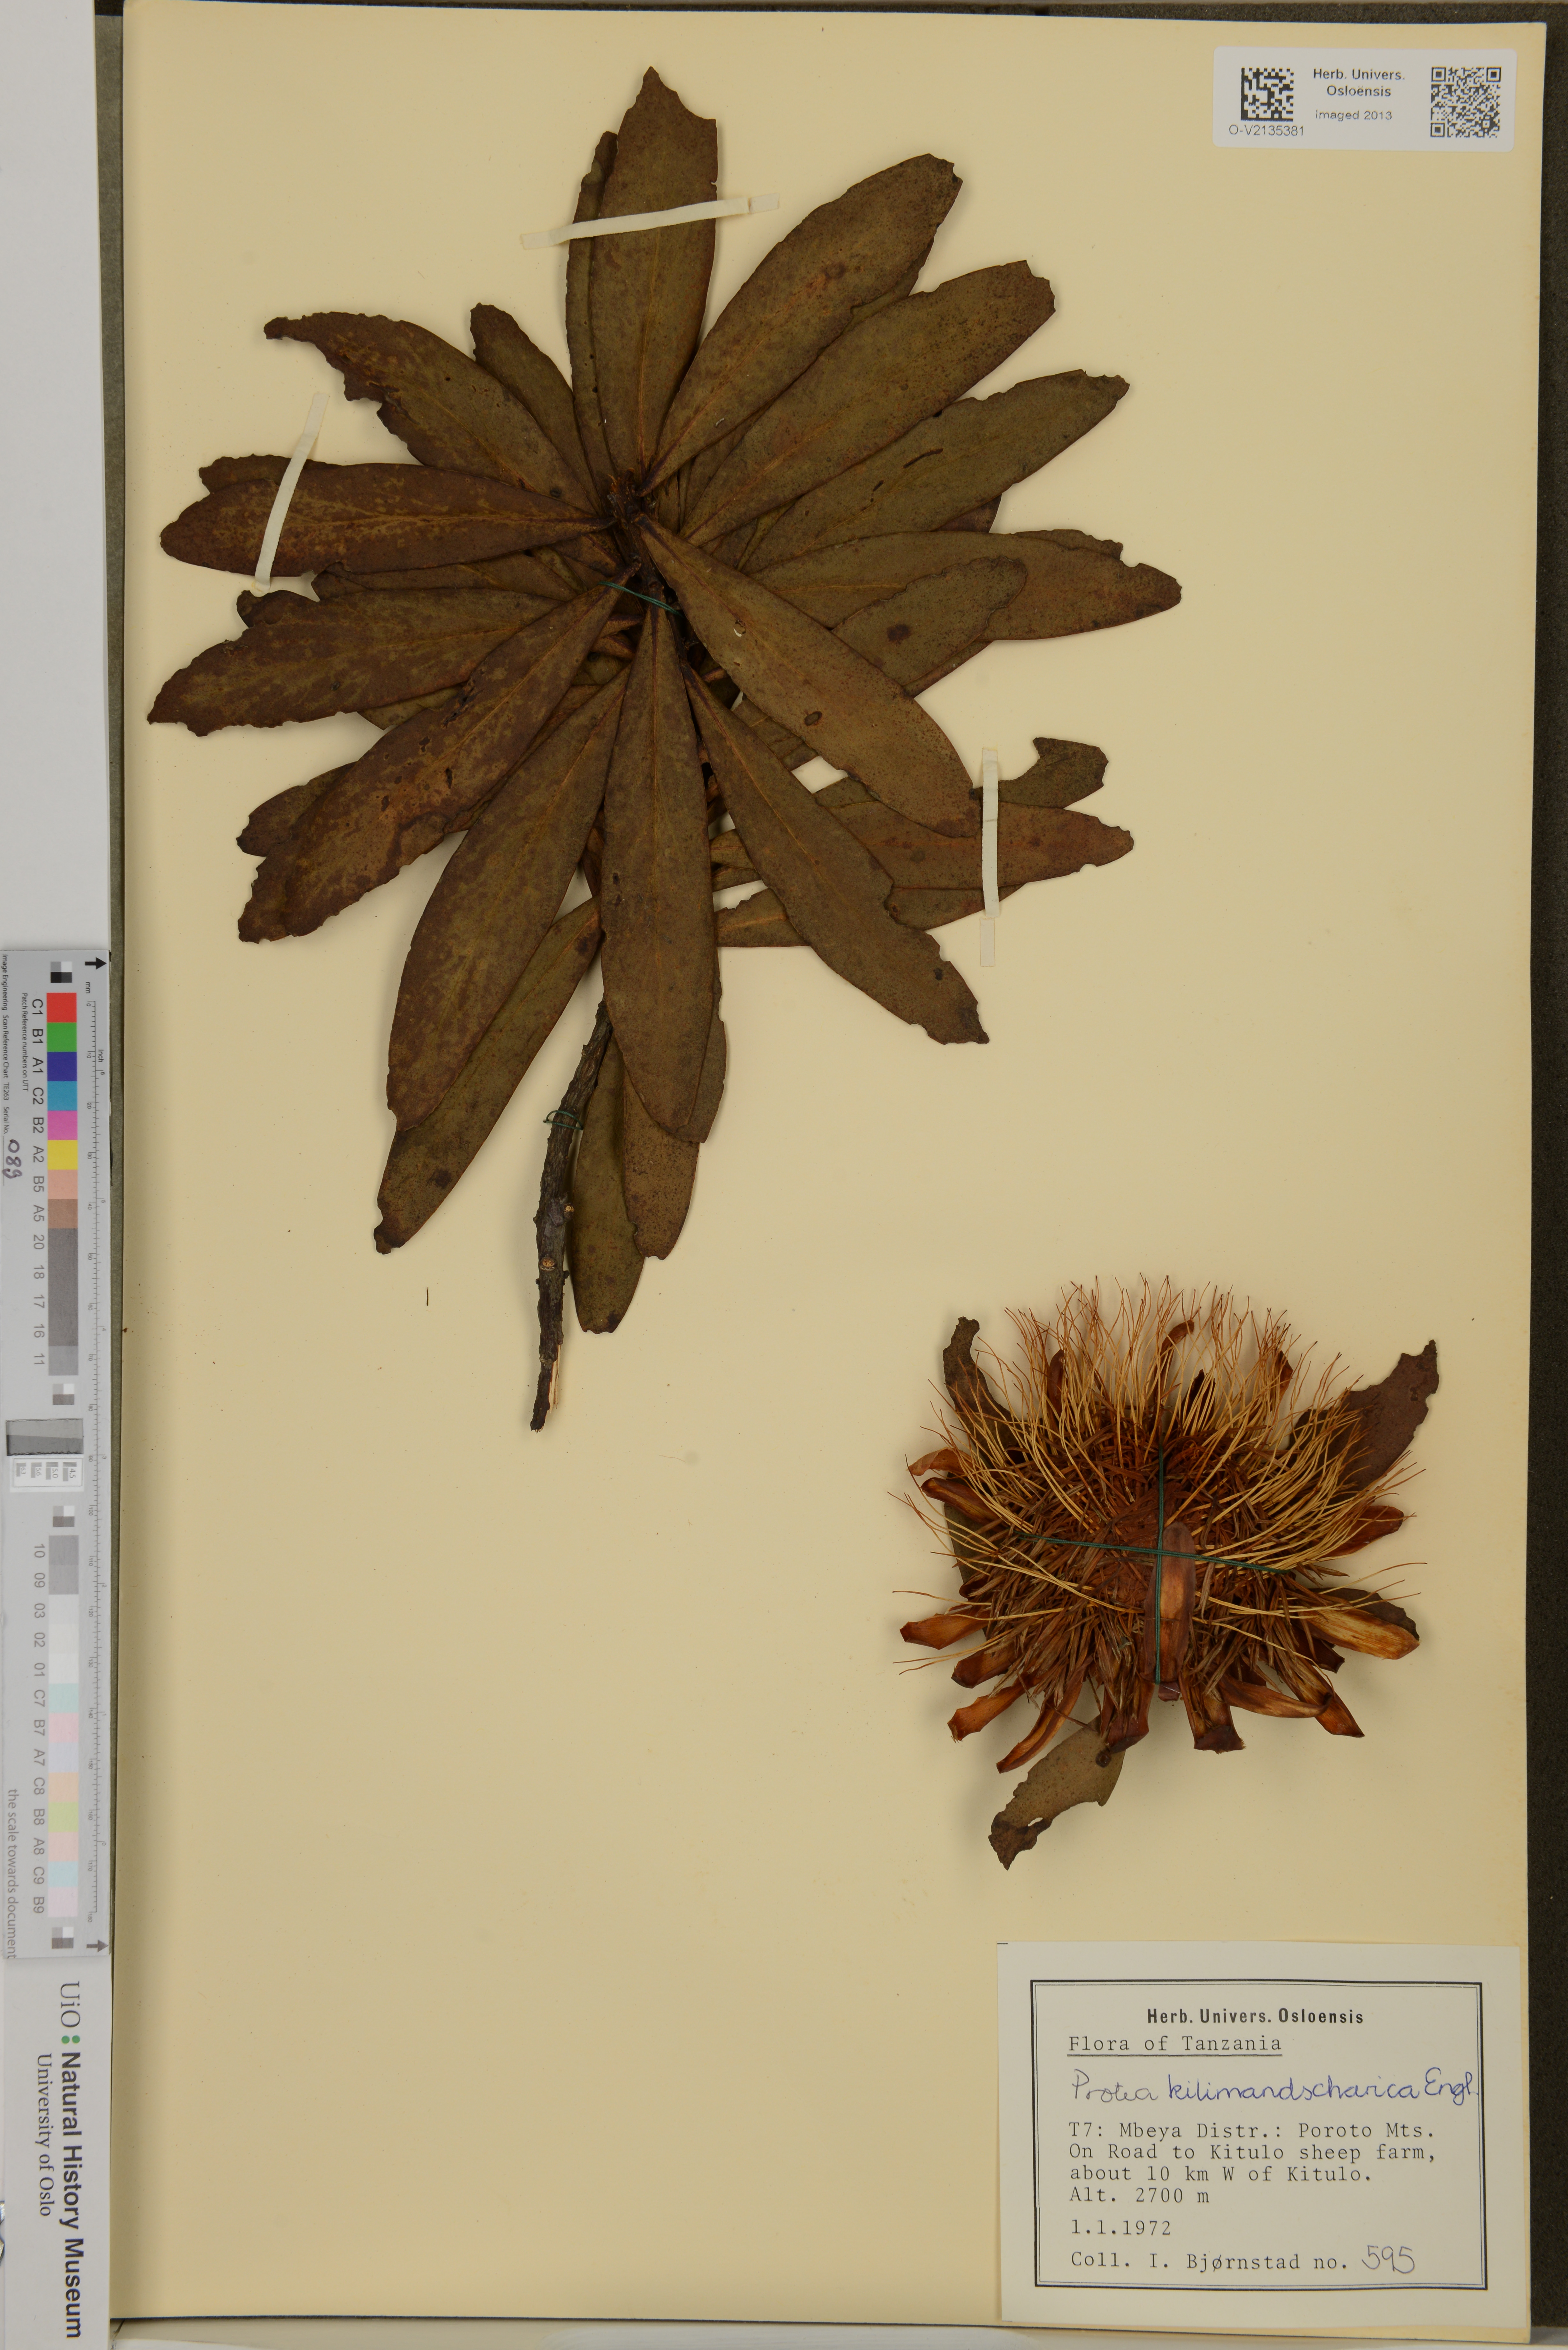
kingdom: Plantae
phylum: Tracheophyta
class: Magnoliopsida
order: Proteales
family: Proteaceae
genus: Protea
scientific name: Protea caffra
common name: Common sugarbush
